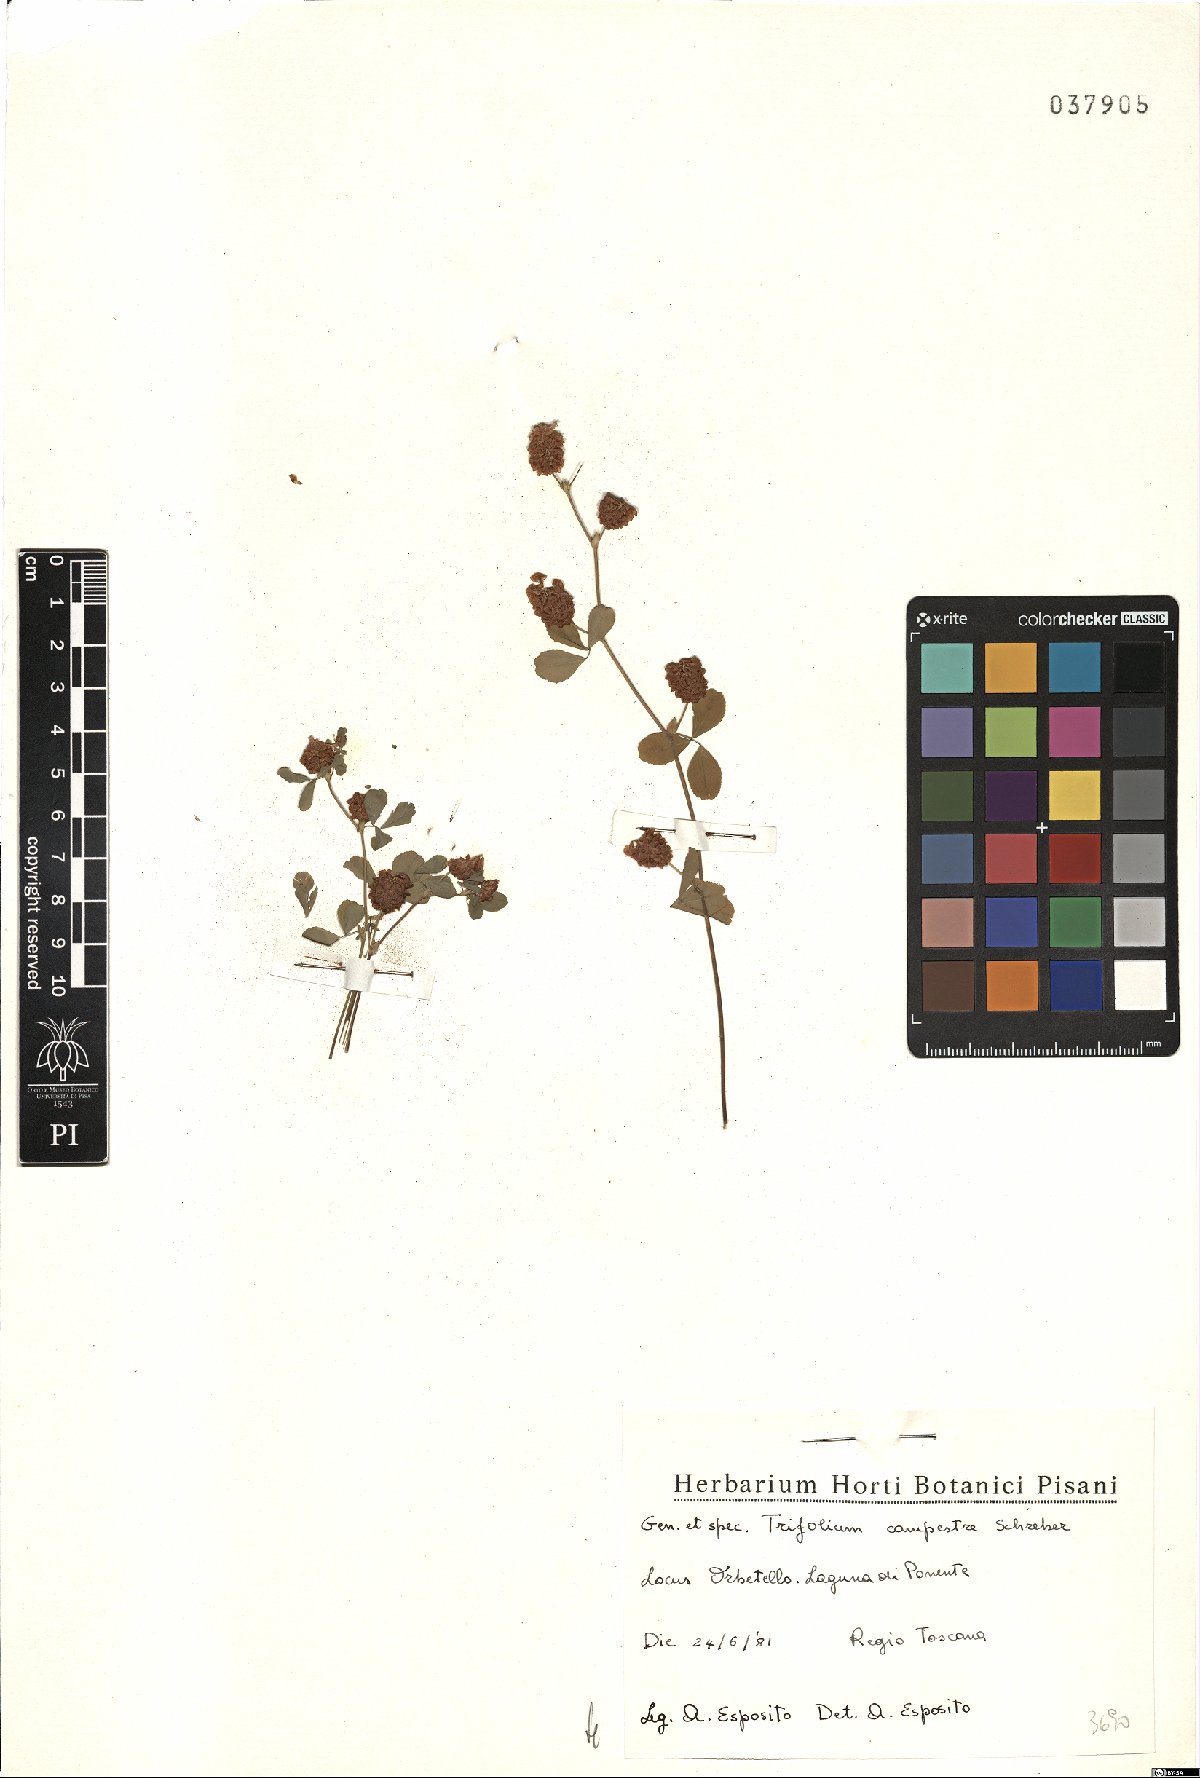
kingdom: Plantae
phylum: Tracheophyta
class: Magnoliopsida
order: Fabales
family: Fabaceae
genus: Trifolium
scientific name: Trifolium campestre
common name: Field clover
